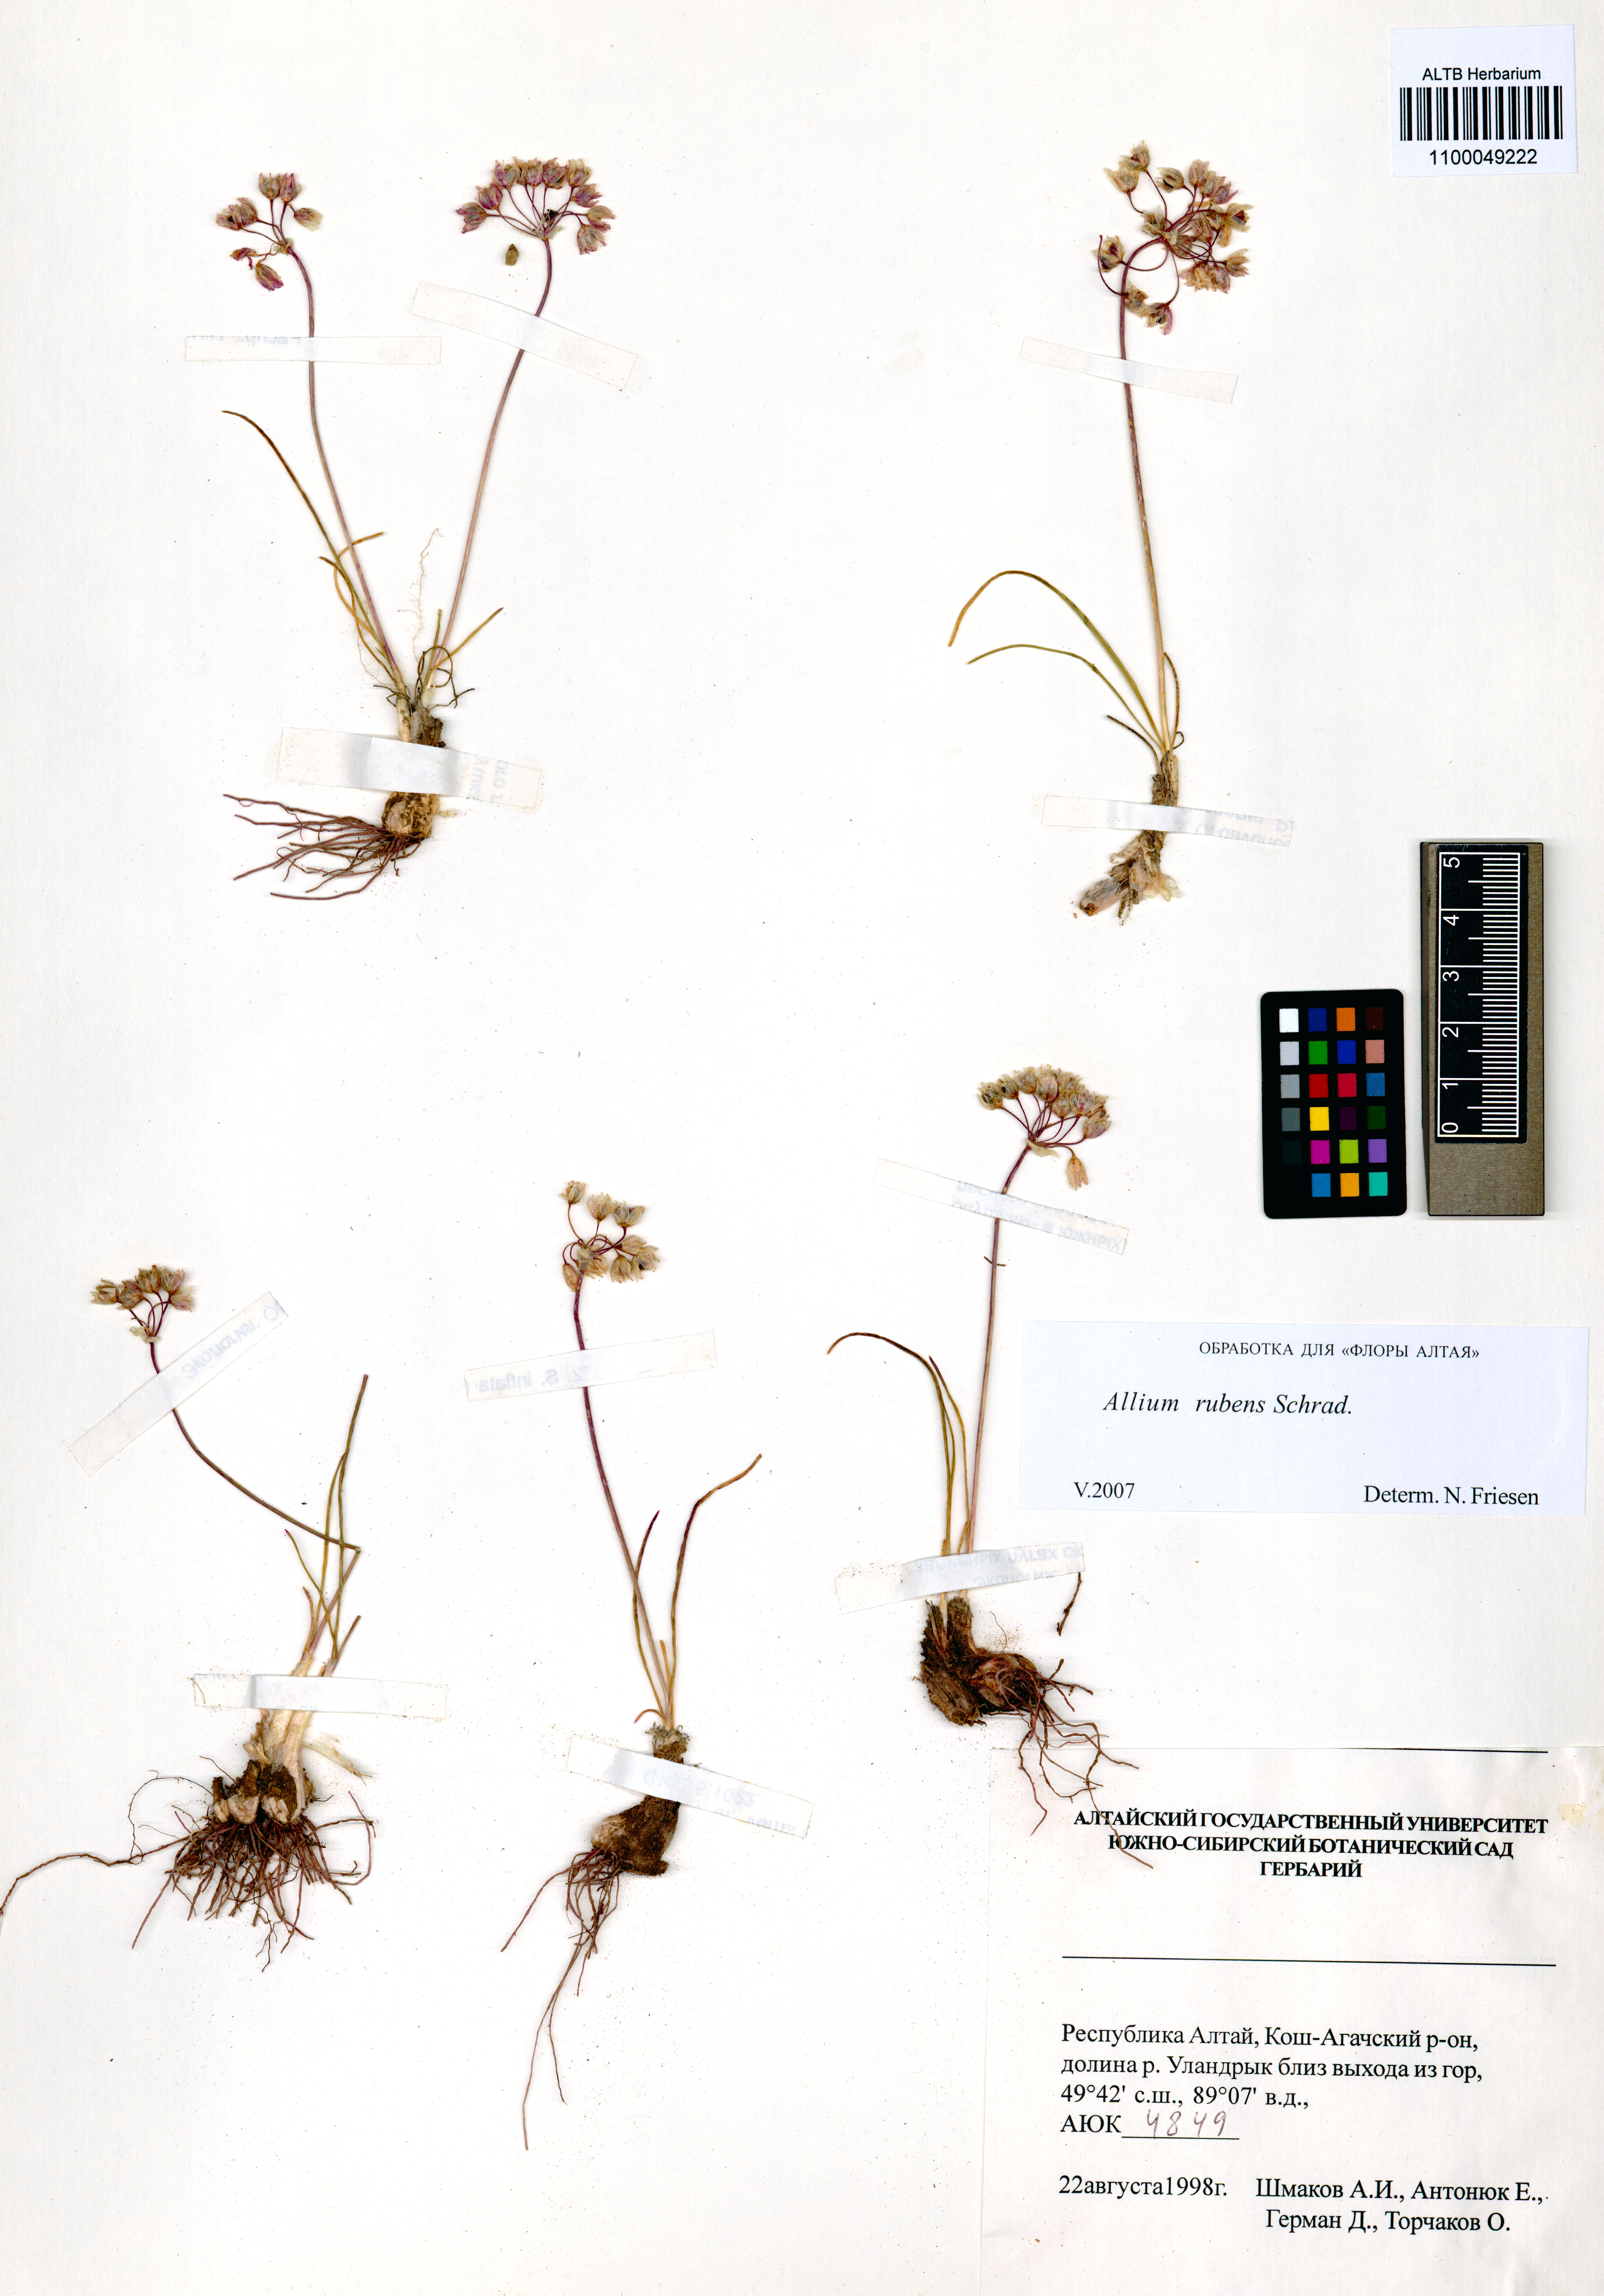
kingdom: Plantae
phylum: Tracheophyta
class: Liliopsida
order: Asparagales
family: Amaryllidaceae
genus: Allium
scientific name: Allium rubens
